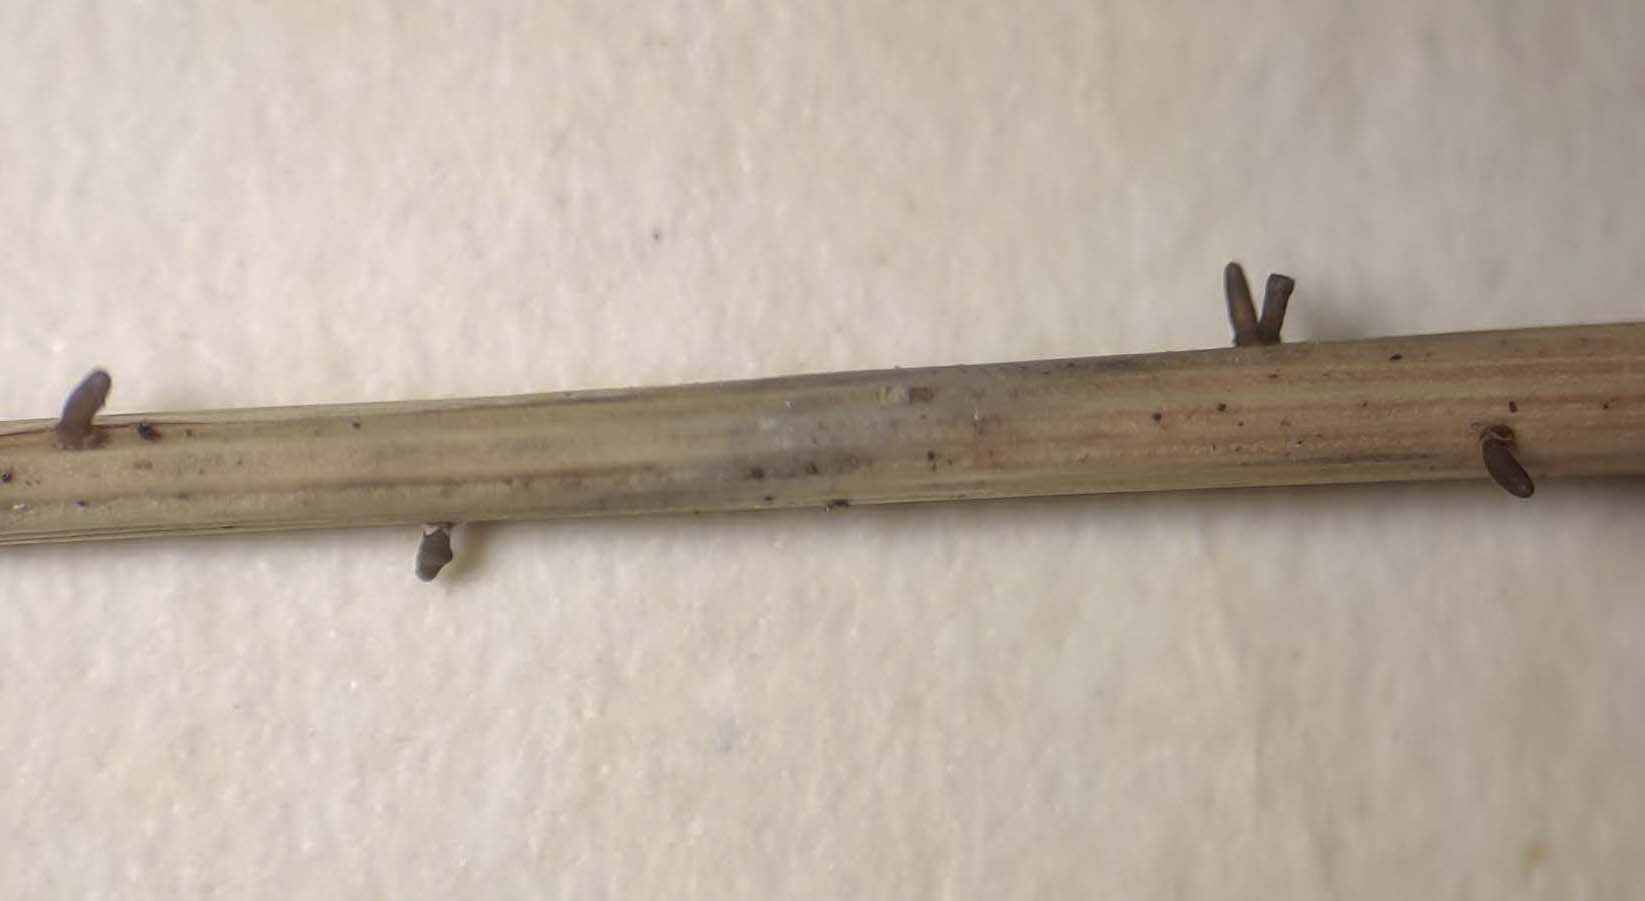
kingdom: Fungi
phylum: Ascomycota
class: Dothideomycetes
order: Acrospermales
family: Acrospermaceae
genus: Acrospermum
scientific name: Acrospermum graminum
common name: græs-stængeltunge
